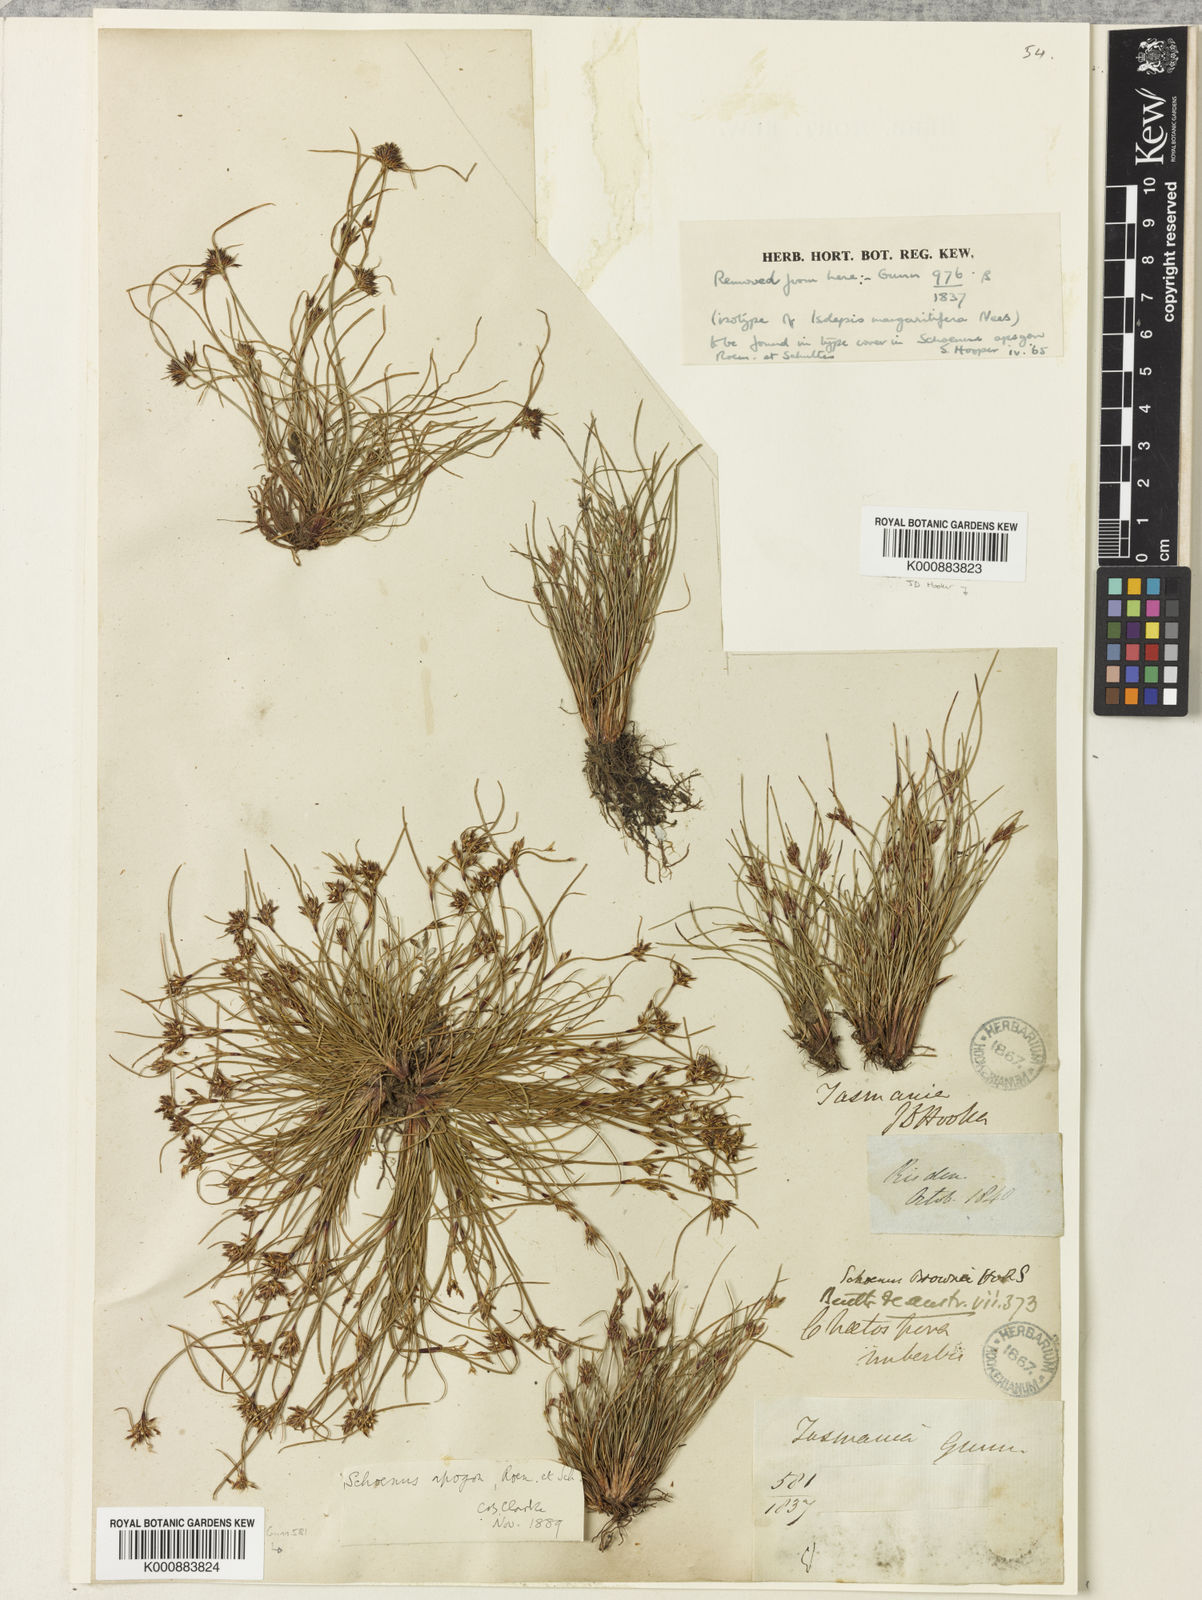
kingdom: Plantae
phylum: Tracheophyta
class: Liliopsida
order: Poales
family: Cyperaceae
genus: Schoenus
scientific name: Schoenus apogon
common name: Smooth bogrush
